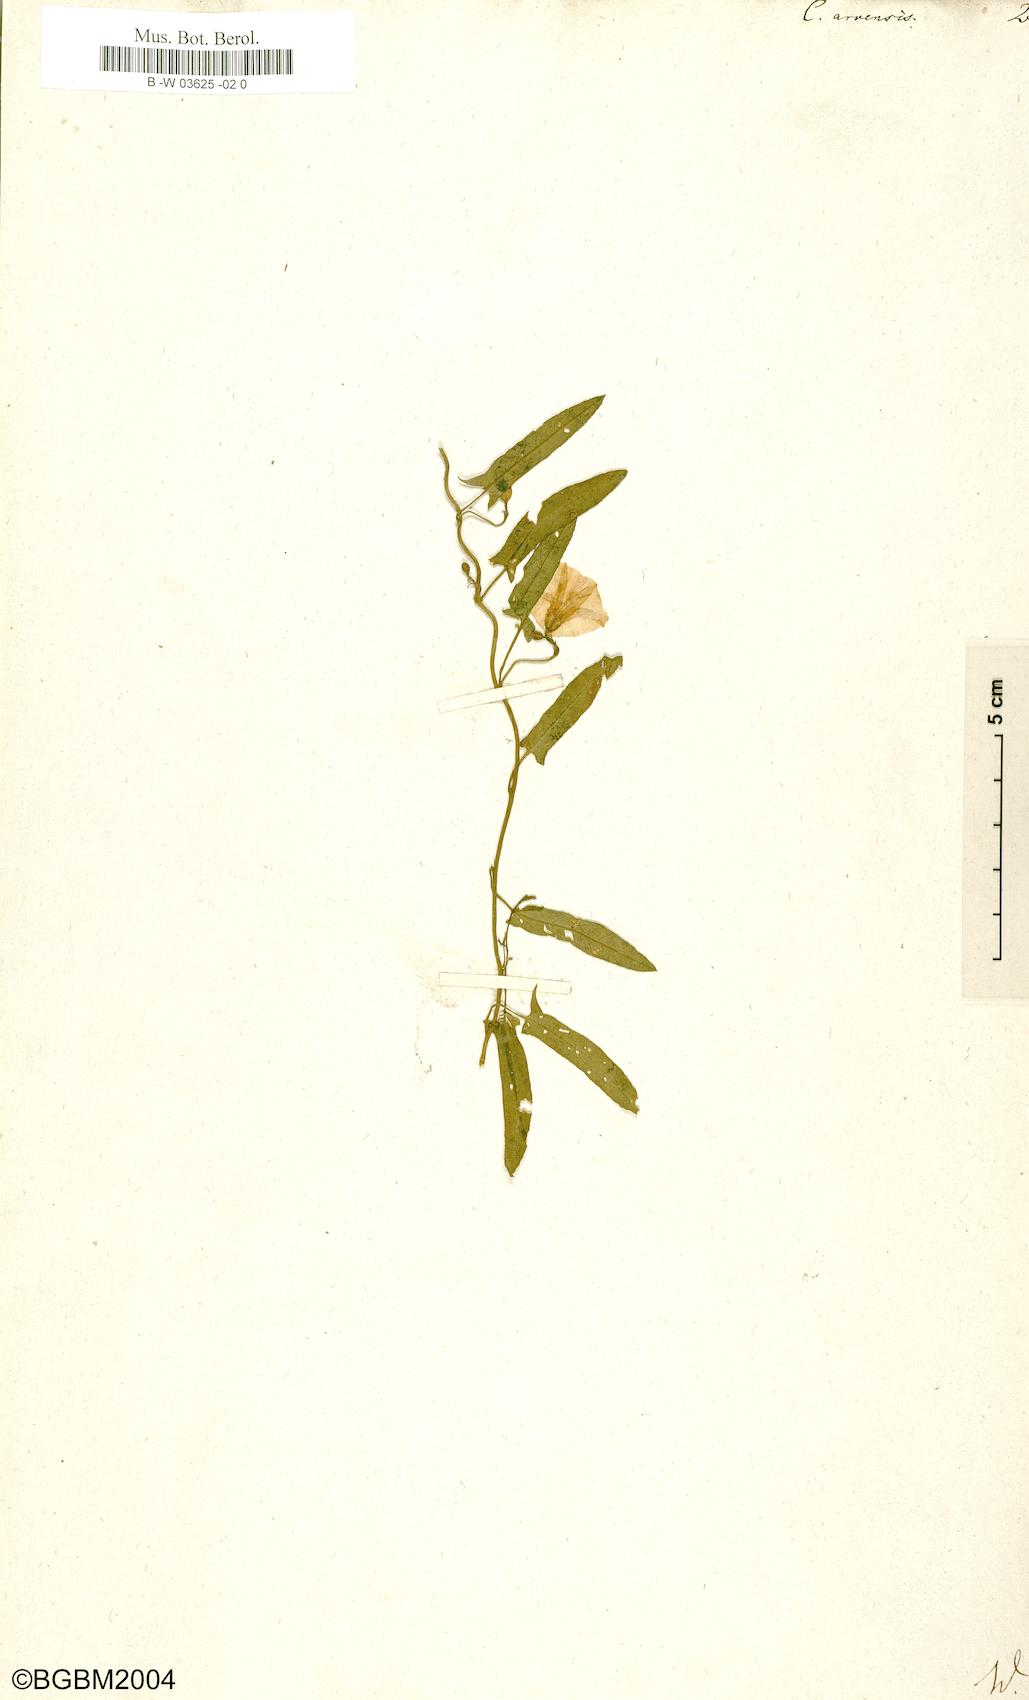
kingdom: Plantae
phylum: Tracheophyta
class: Magnoliopsida
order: Solanales
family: Convolvulaceae
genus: Convolvulus
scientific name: Convolvulus arvensis
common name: Field bindweed
